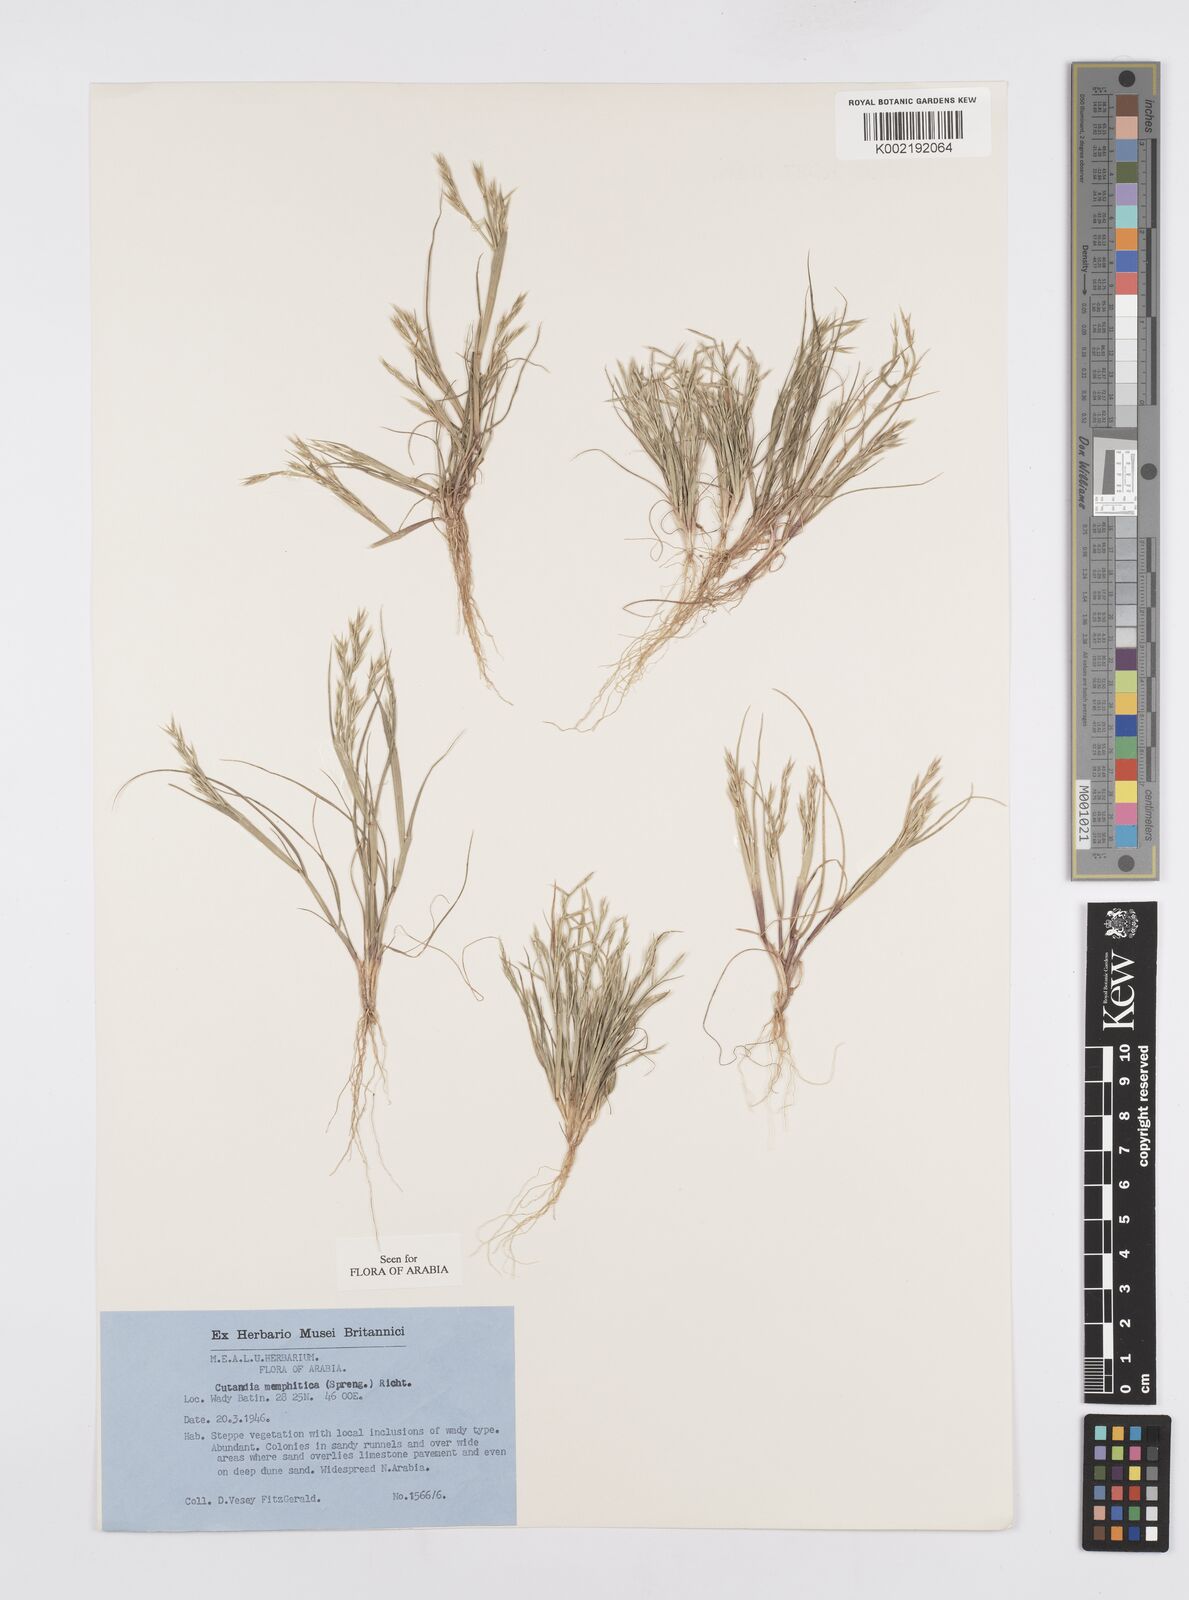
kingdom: Plantae
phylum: Tracheophyta
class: Liliopsida
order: Poales
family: Poaceae
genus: Cutandia
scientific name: Cutandia memphitica
